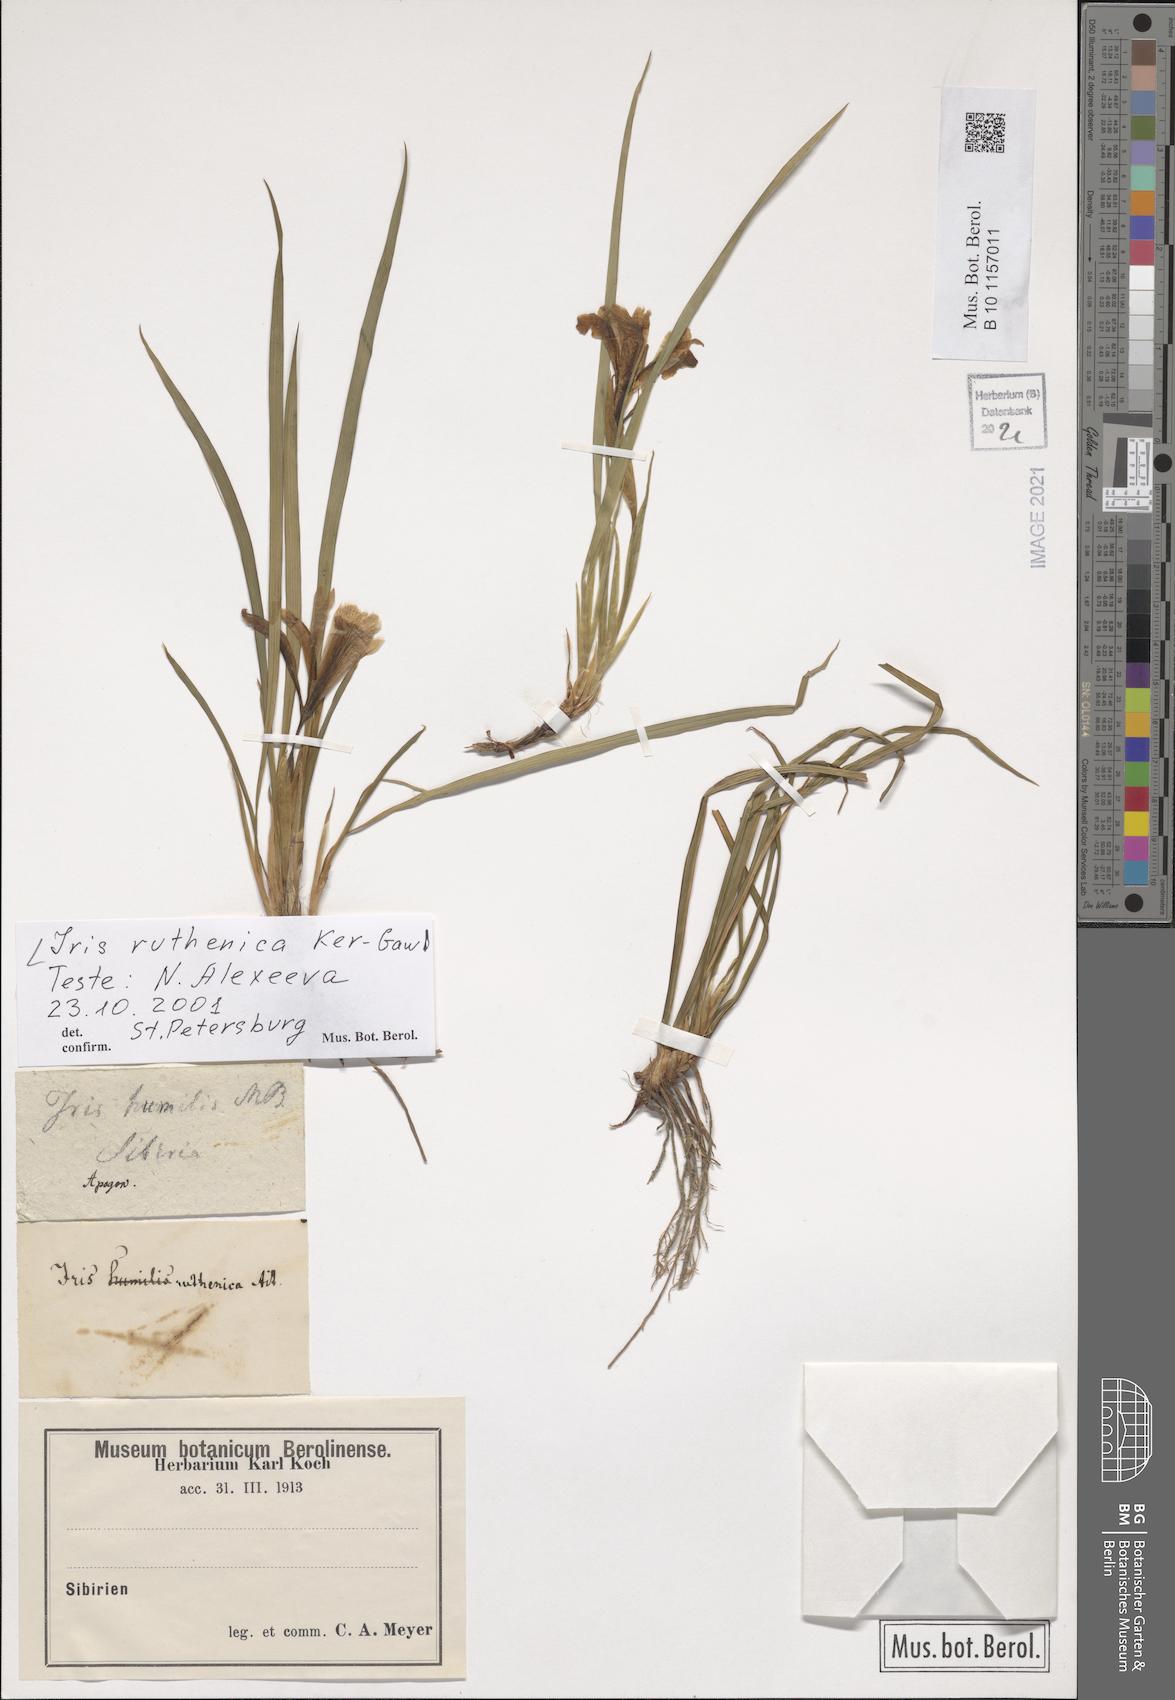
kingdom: Plantae
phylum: Tracheophyta
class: Liliopsida
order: Asparagales
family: Iridaceae
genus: Iris
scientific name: Iris ruthenica
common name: Purple-bract iris
